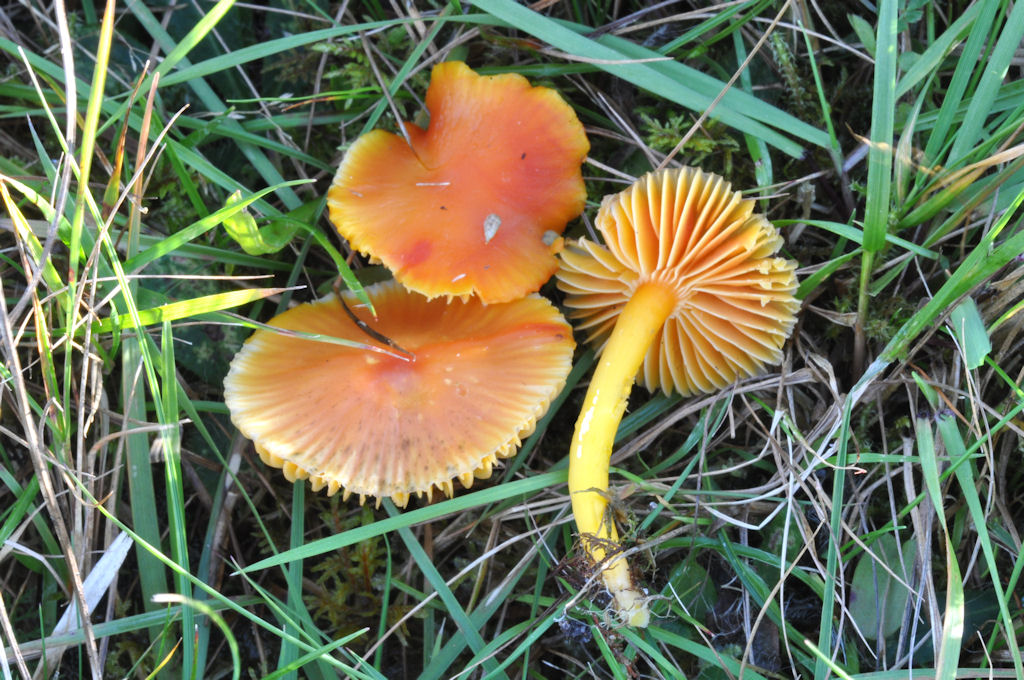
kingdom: Fungi
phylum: Basidiomycota
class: Agaricomycetes
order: Agaricales
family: Hygrophoraceae
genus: Hygrocybe
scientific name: Hygrocybe coccinea
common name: cinnober-vokshat
